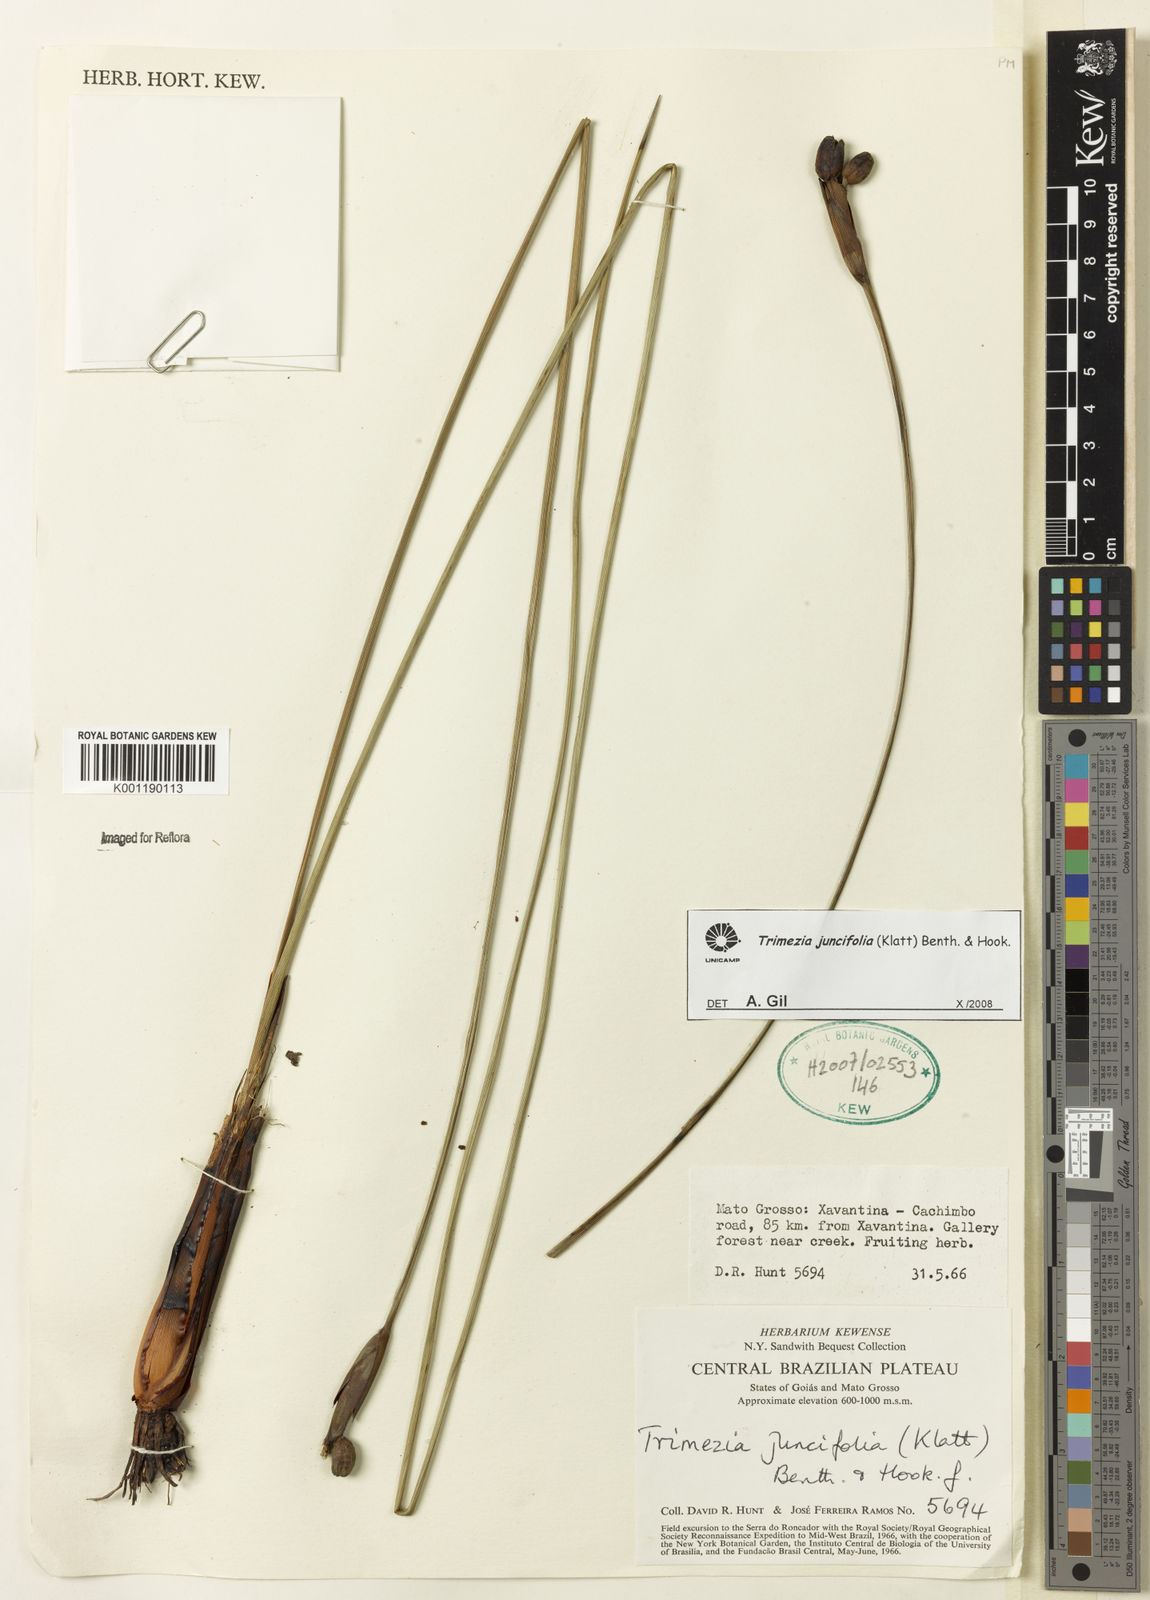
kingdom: Plantae
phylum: Tracheophyta
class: Liliopsida
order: Asparagales
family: Iridaceae
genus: Trimezia
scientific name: Trimezia juncifolia
